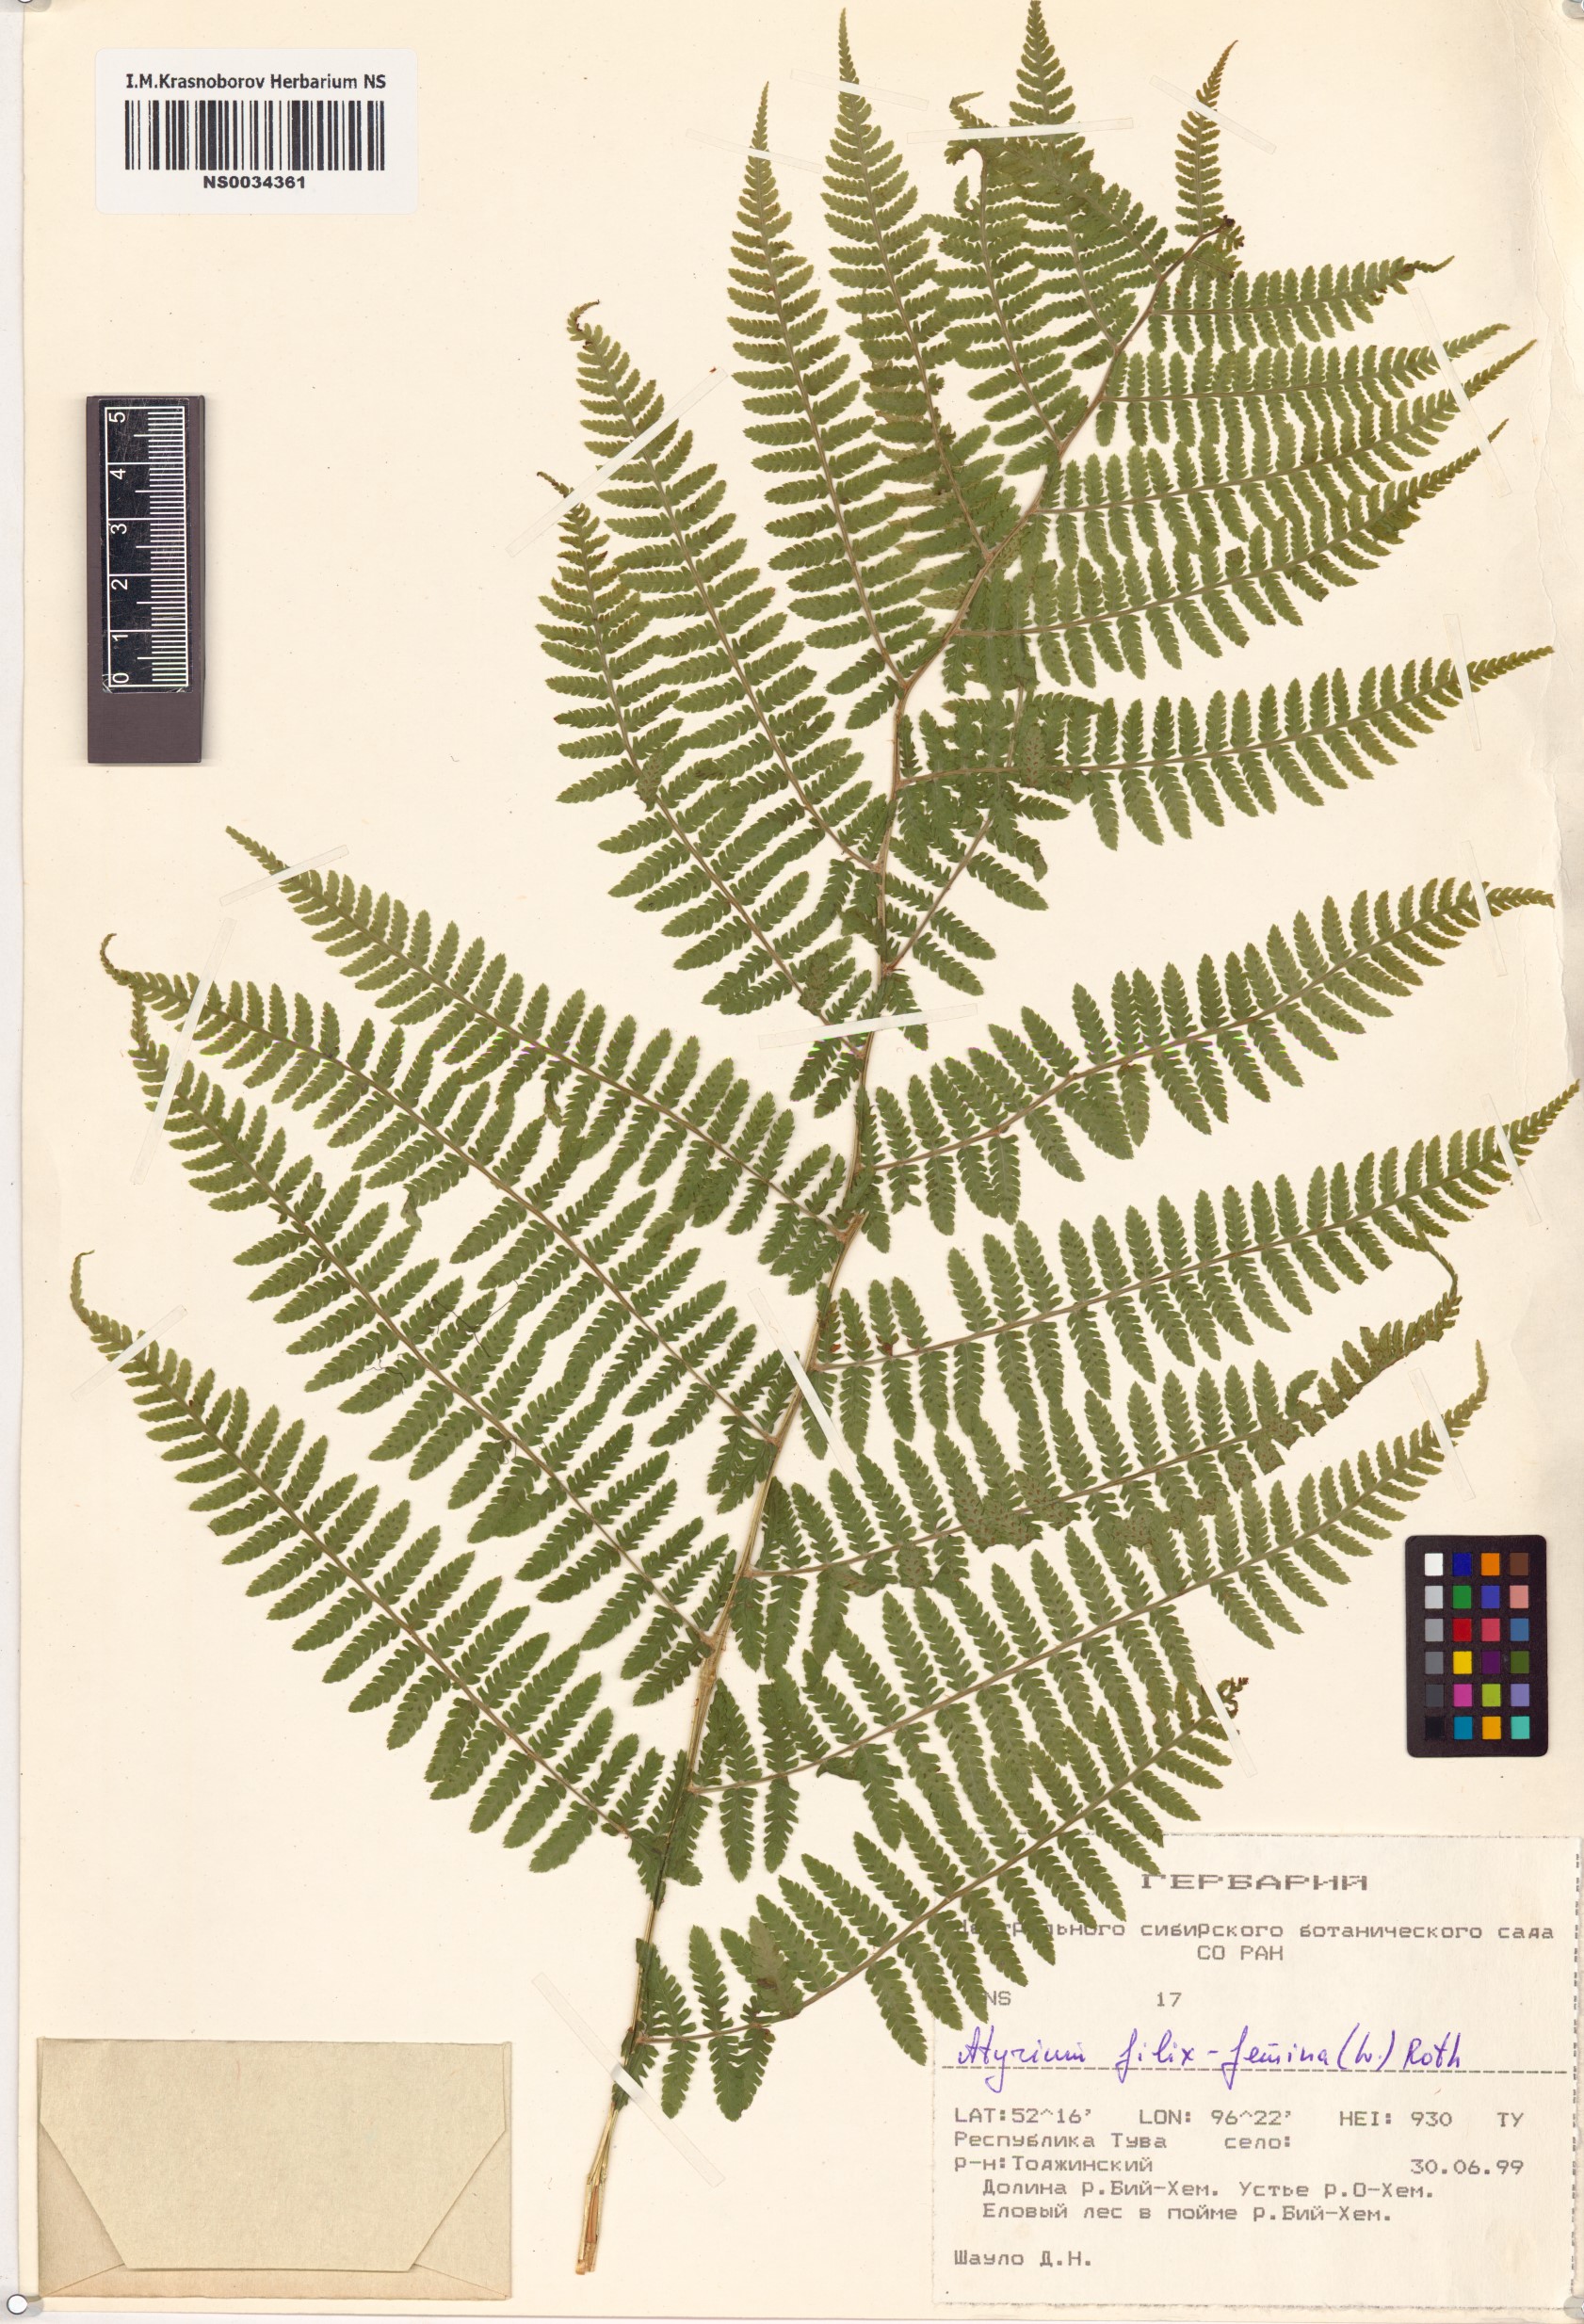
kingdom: Plantae
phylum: Tracheophyta
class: Polypodiopsida
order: Polypodiales
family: Athyriaceae
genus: Athyrium
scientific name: Athyrium filix-femina
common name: Lady fern
